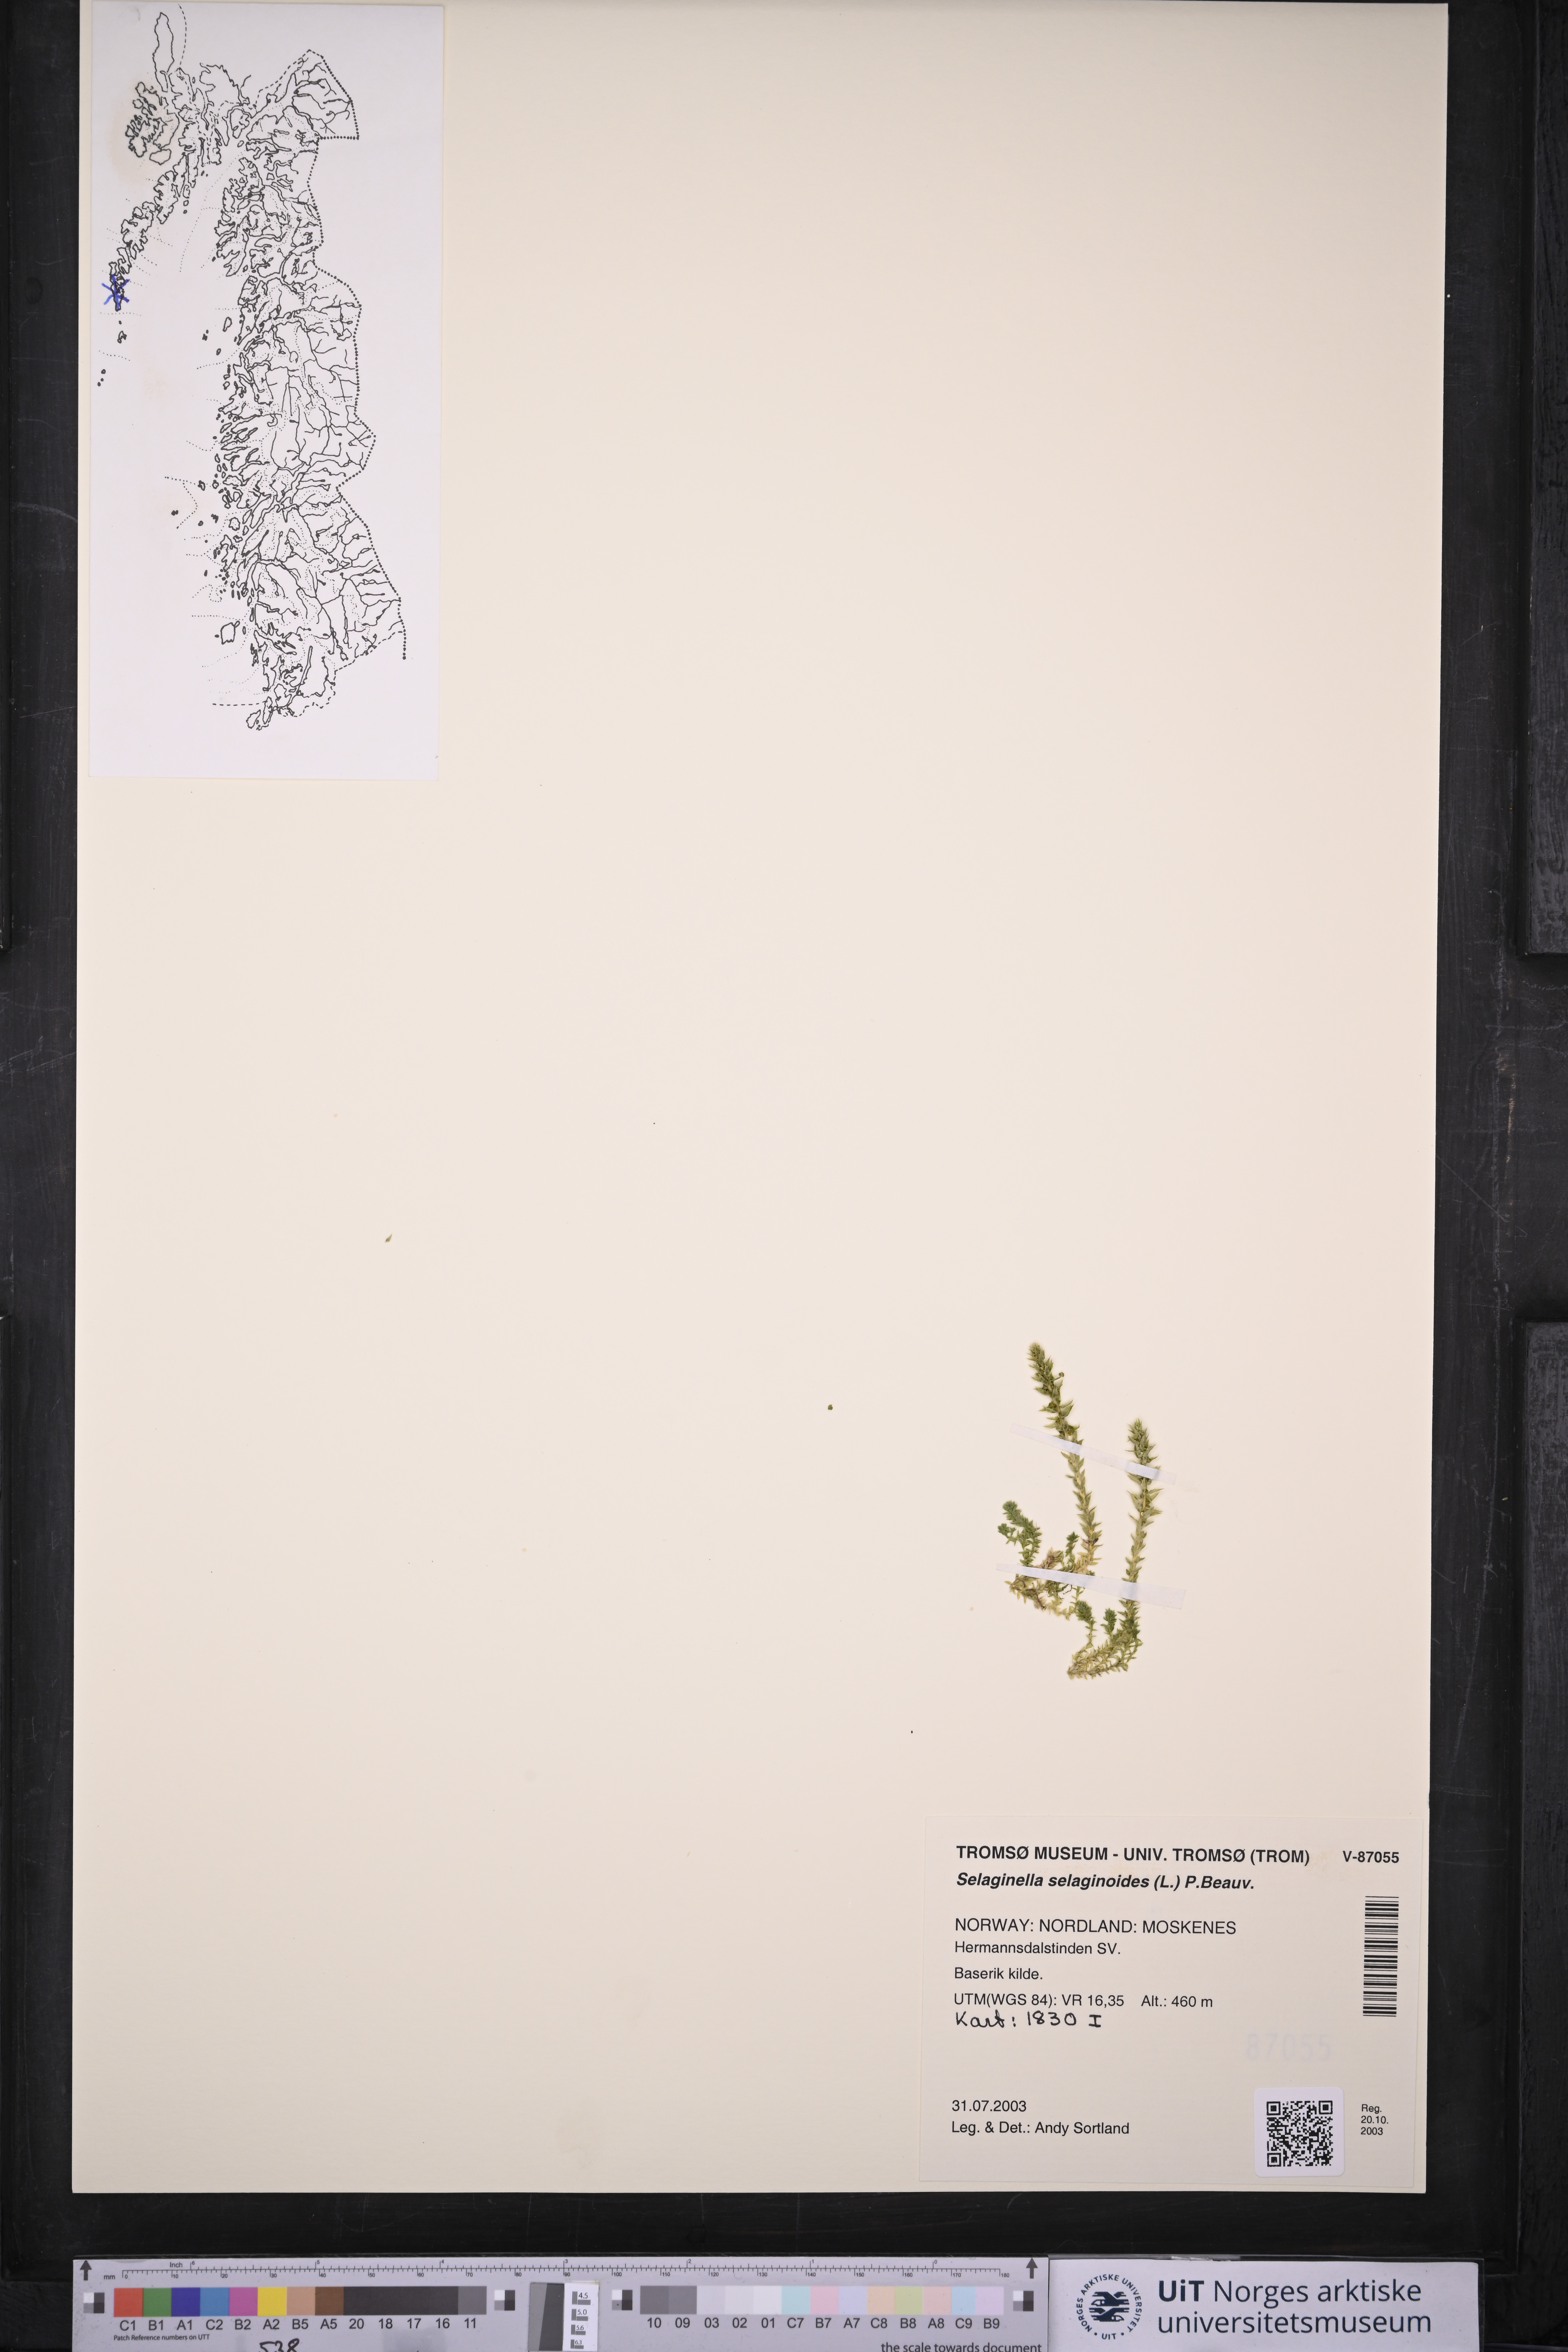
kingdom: Plantae
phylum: Tracheophyta
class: Lycopodiopsida
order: Selaginellales
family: Selaginellaceae
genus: Selaginella
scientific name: Selaginella selaginoides
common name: Prickly mountain-moss
